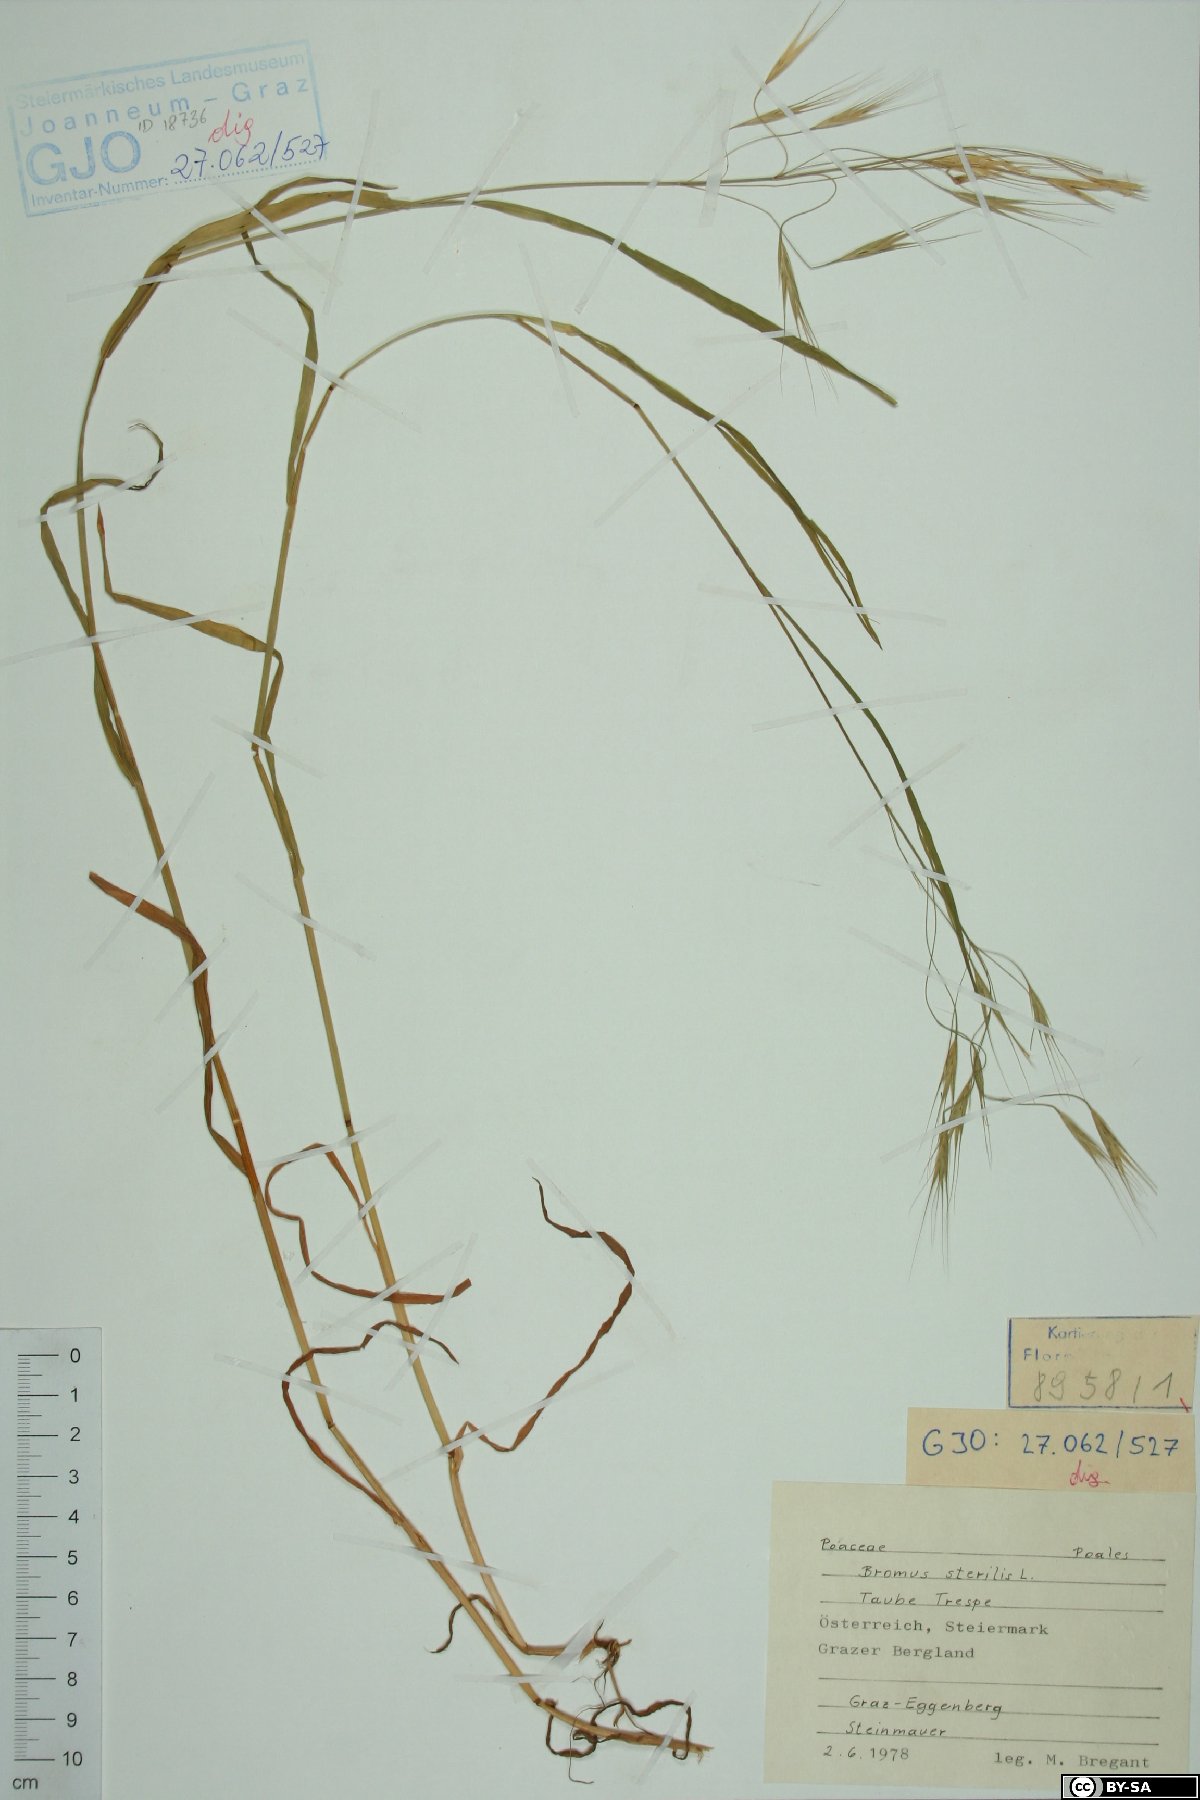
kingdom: Plantae
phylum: Tracheophyta
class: Liliopsida
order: Poales
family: Poaceae
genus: Bromus
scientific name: Bromus sterilis
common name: Poverty brome
